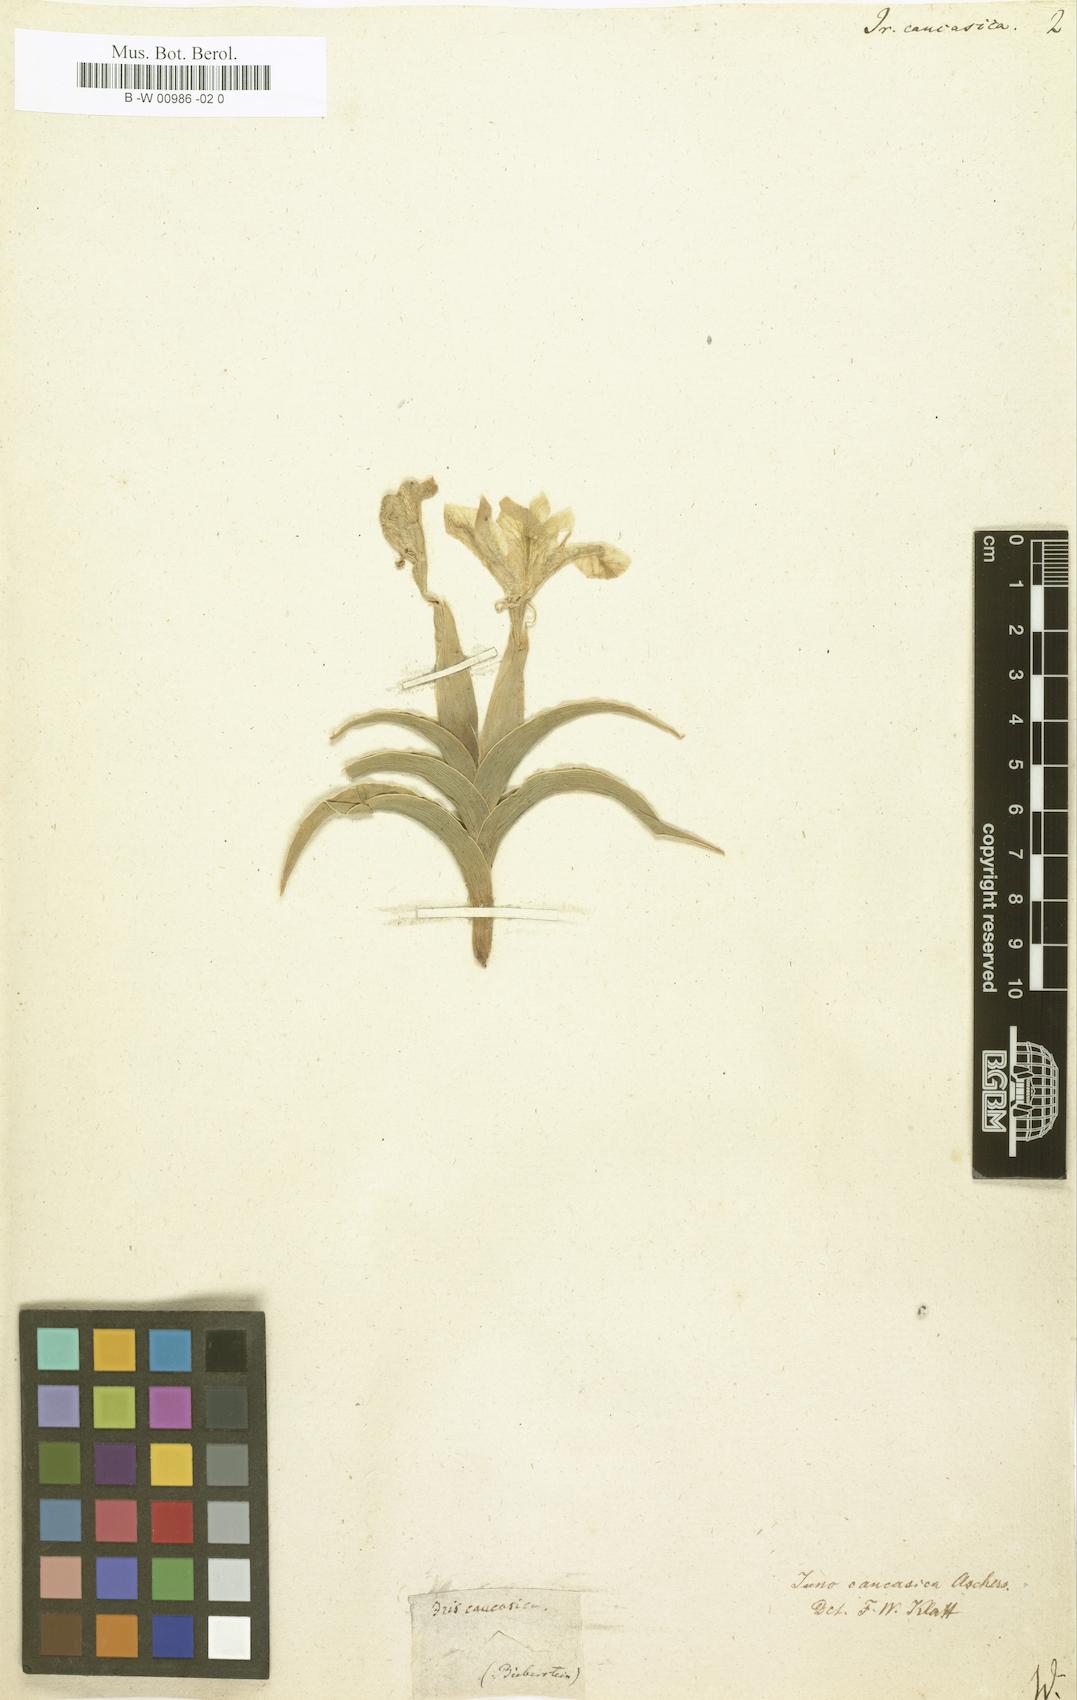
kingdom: Plantae
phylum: Tracheophyta
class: Liliopsida
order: Asparagales
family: Iridaceae
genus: Iris
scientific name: Iris caucasica
